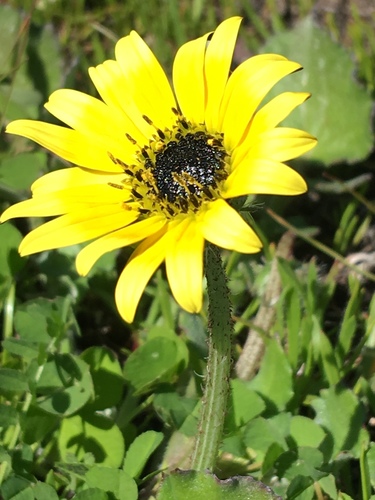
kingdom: Plantae
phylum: Tracheophyta
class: Magnoliopsida
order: Asterales
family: Asteraceae
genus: Arctotheca
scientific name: Arctotheca calendula
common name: Capeweed
